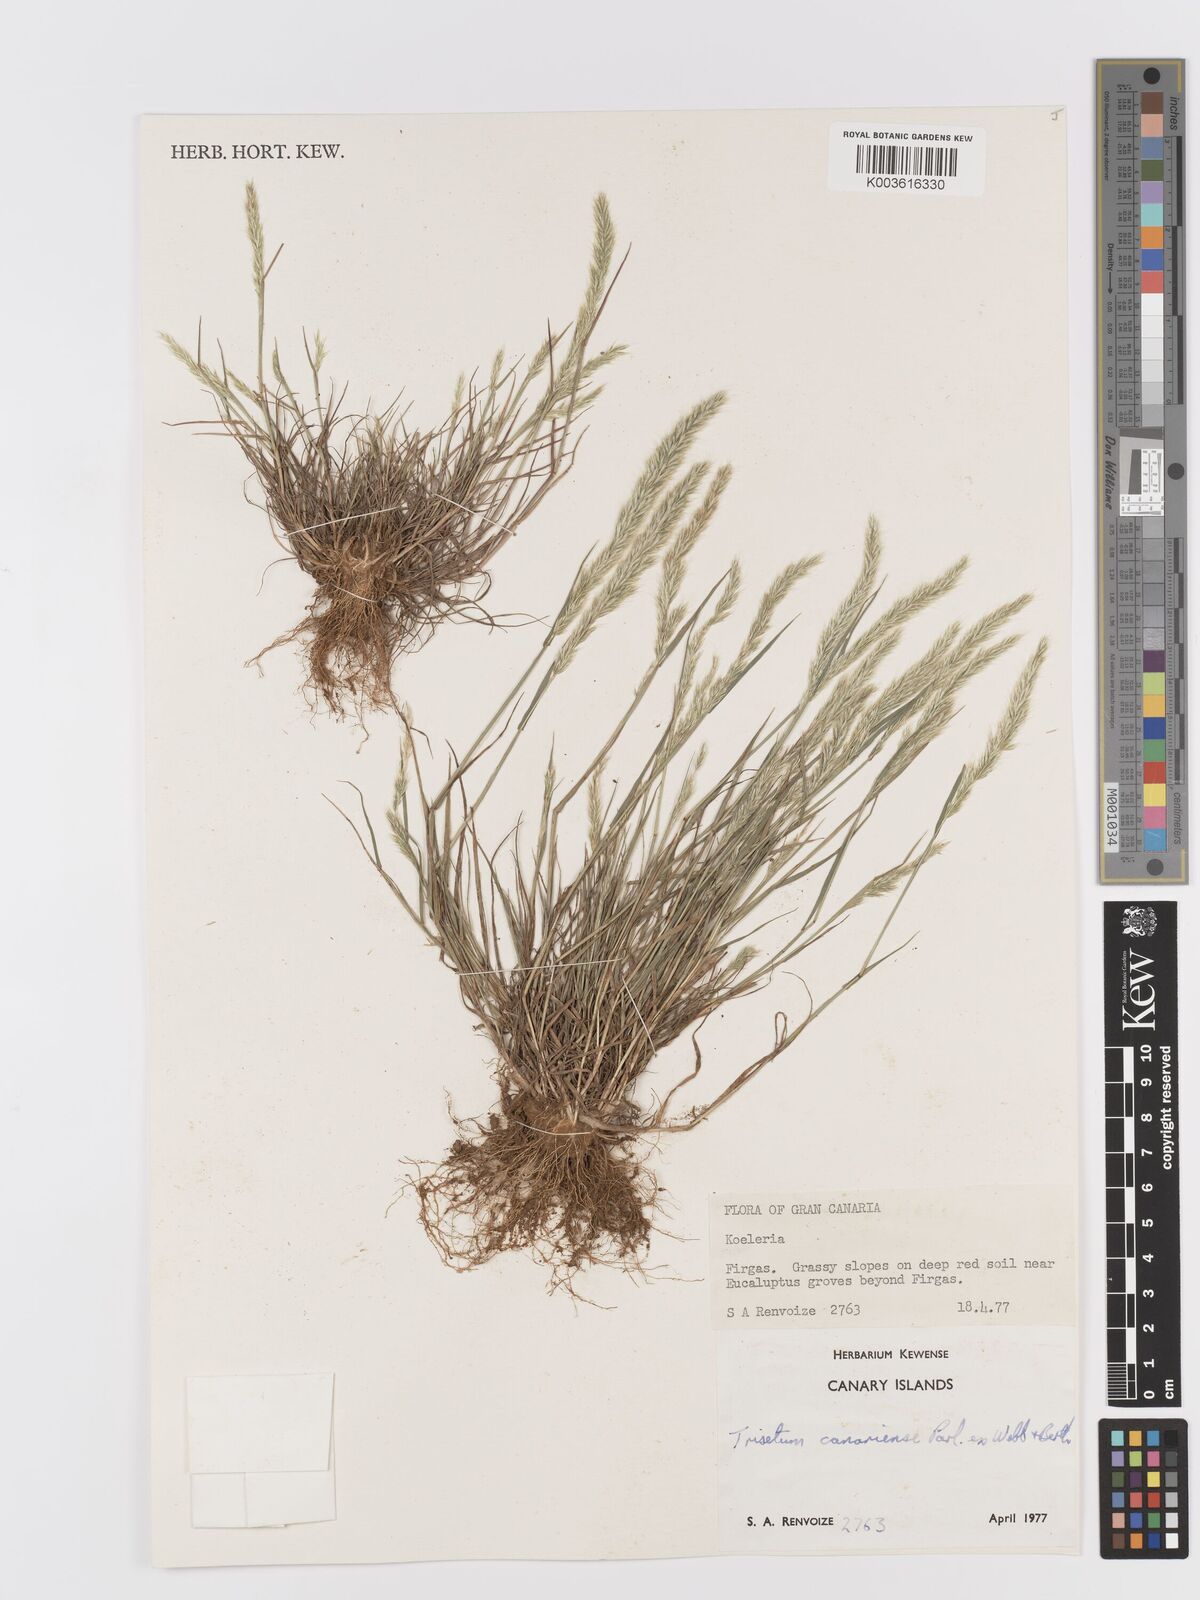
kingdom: Plantae
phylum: Tracheophyta
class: Liliopsida
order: Poales
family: Poaceae
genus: Trisetaria
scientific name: Trisetaria panicea
